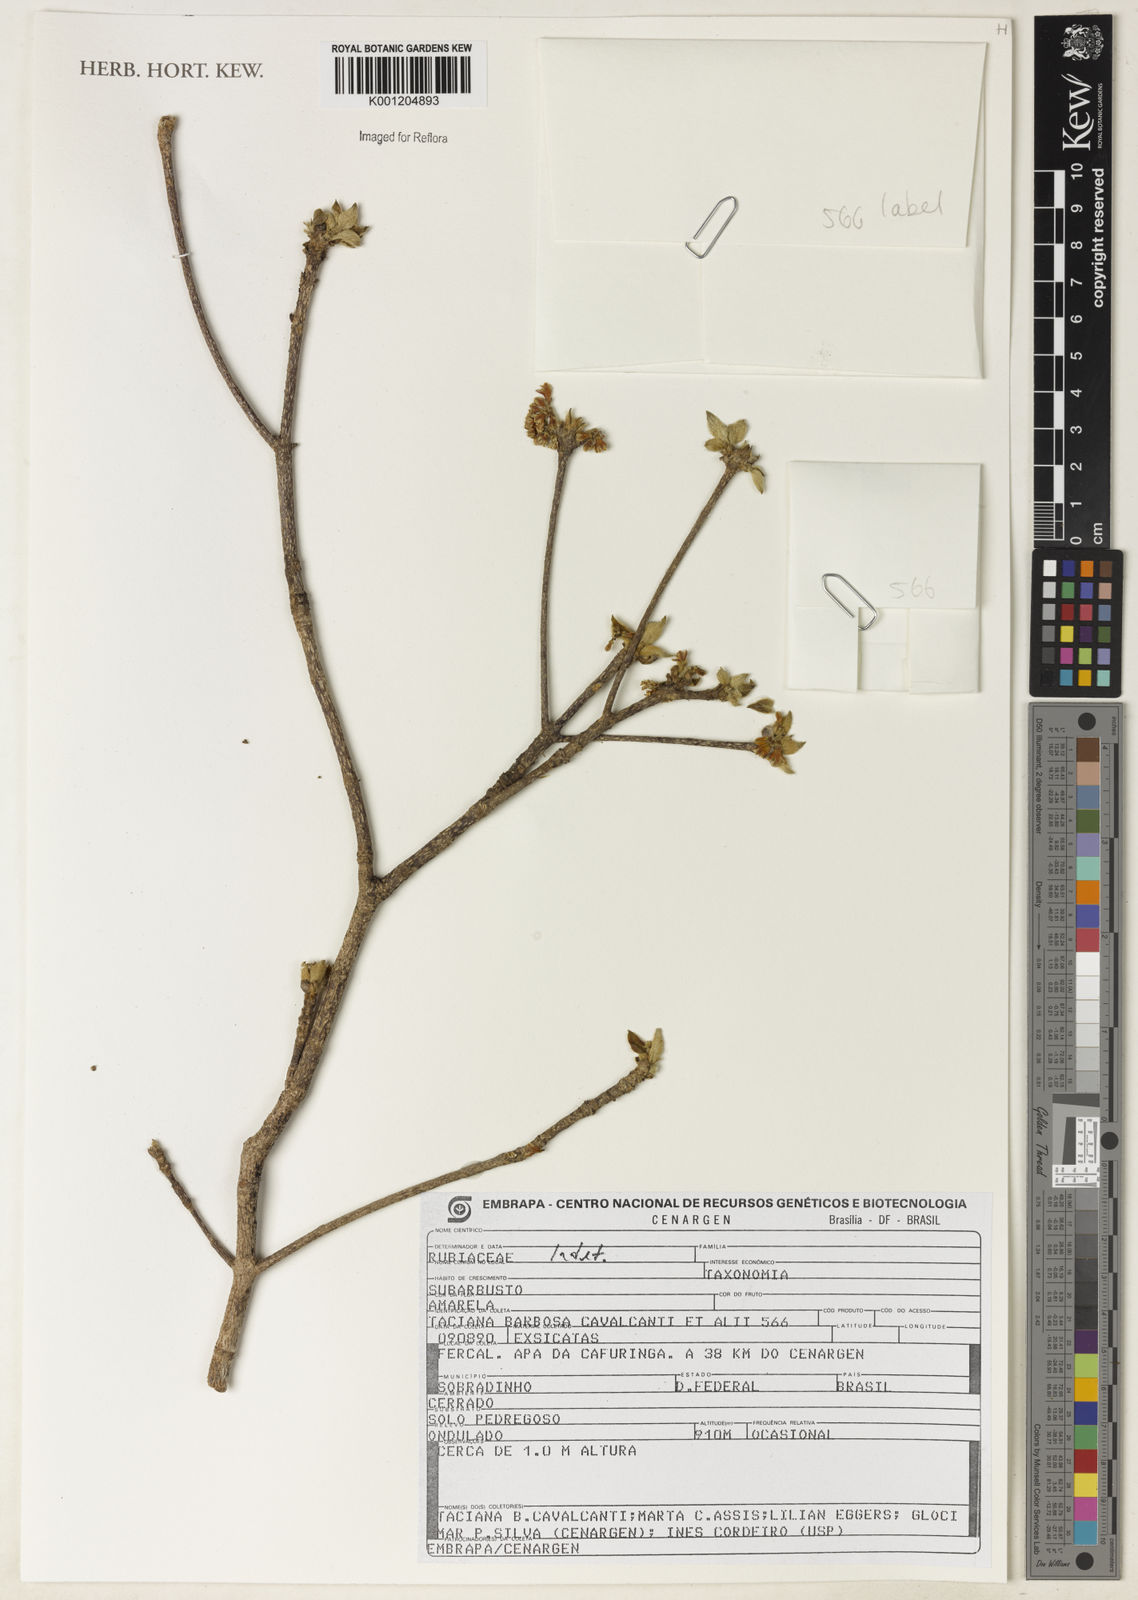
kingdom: Plantae
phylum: Tracheophyta
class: Magnoliopsida
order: Gentianales
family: Rubiaceae
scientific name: Rubiaceae
